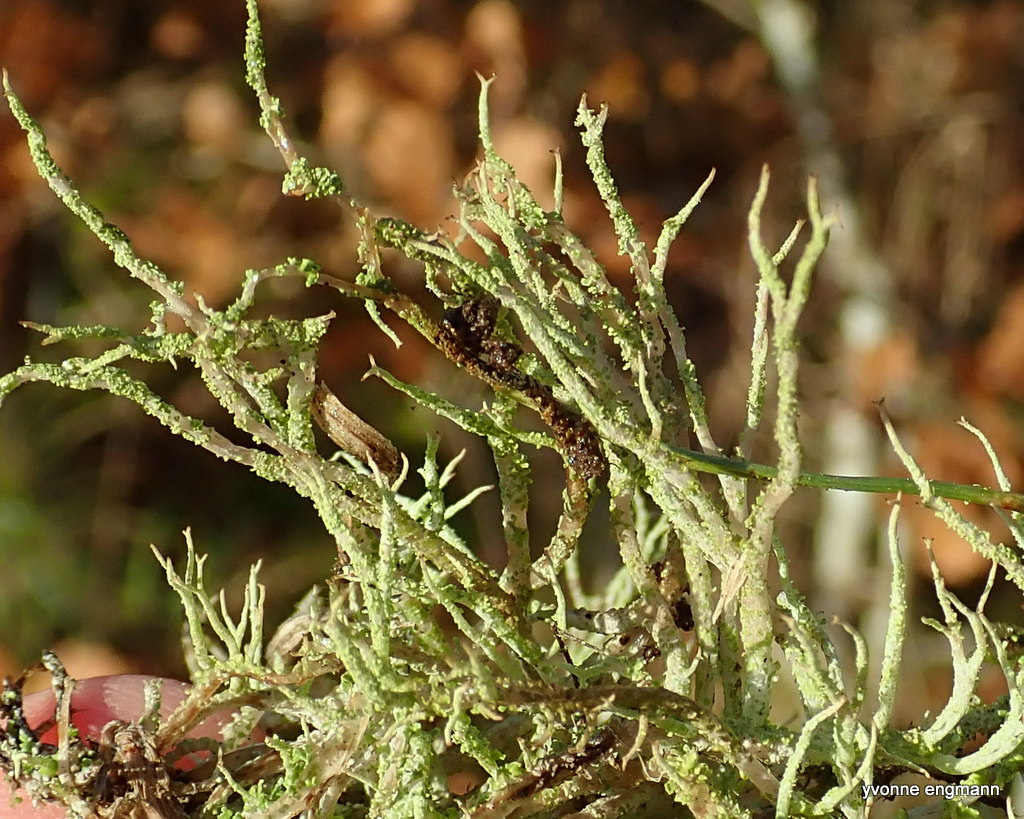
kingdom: Fungi
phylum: Ascomycota
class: Lecanoromycetes
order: Lecanorales
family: Cladoniaceae
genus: Cladonia
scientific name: Cladonia scabriuscula
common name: ru bægerlav
